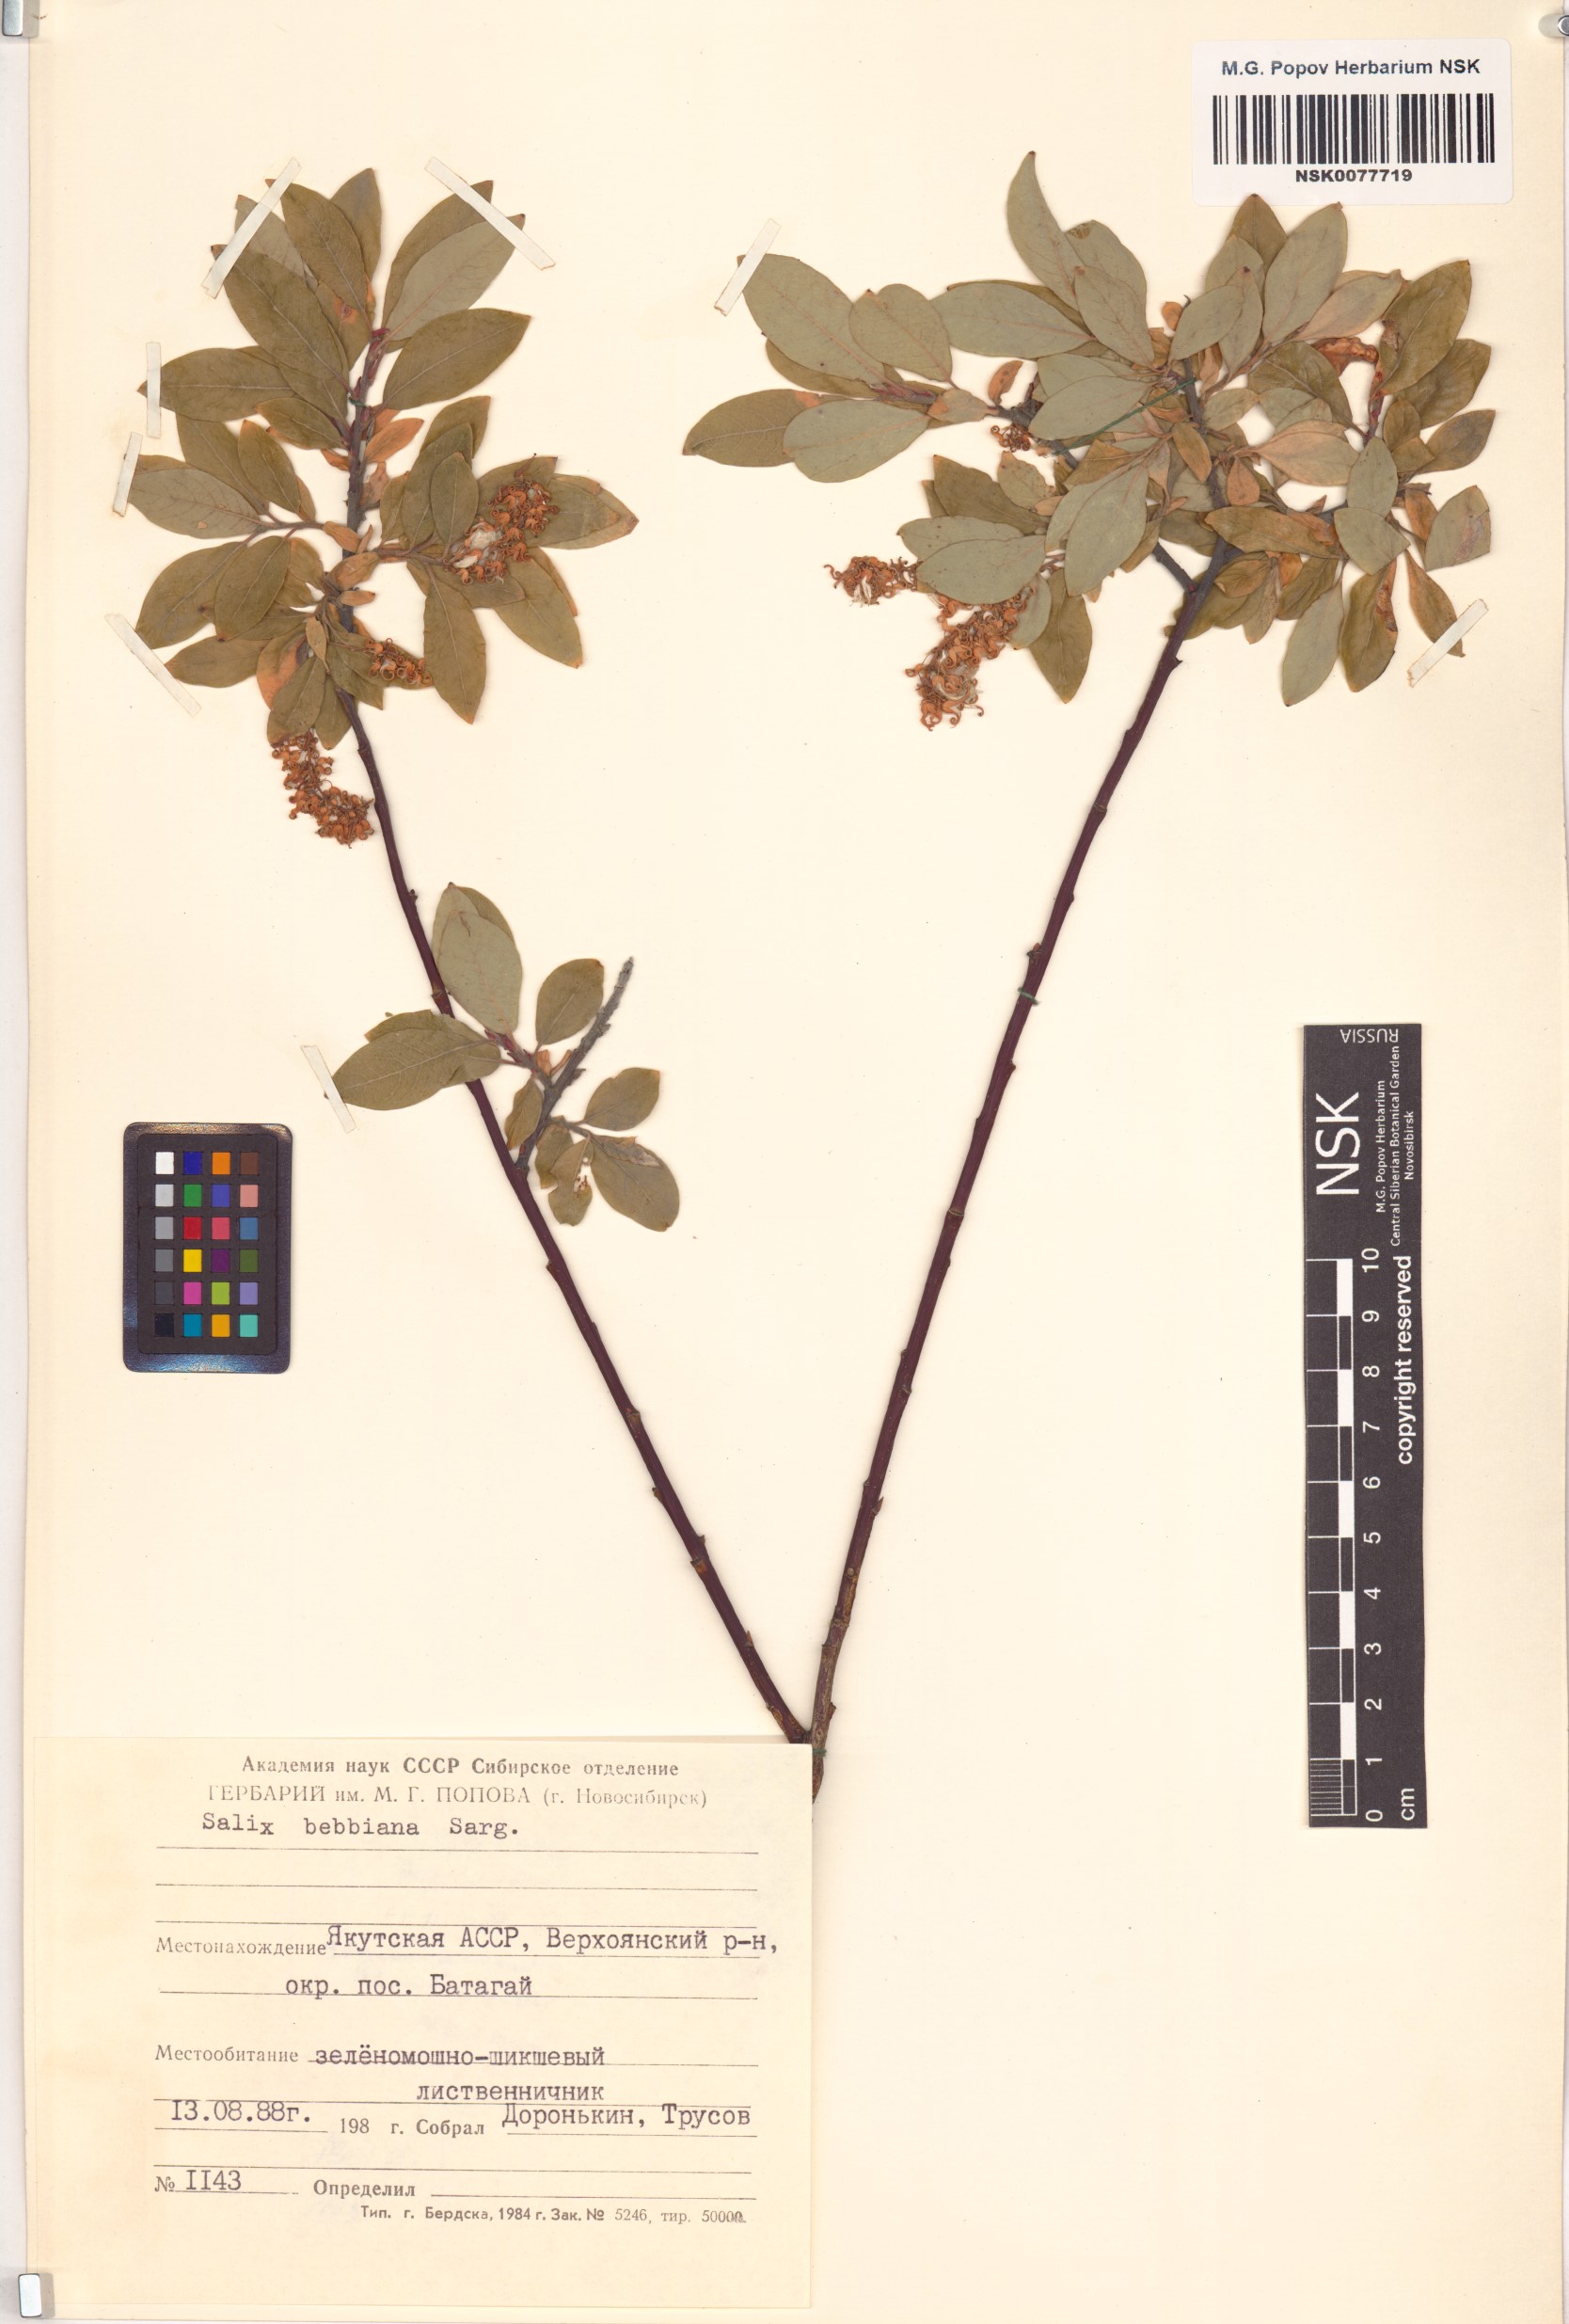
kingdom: Plantae
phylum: Tracheophyta
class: Magnoliopsida
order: Malpighiales
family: Salicaceae
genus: Salix
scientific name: Salix bebbiana
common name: Bebb's willow
